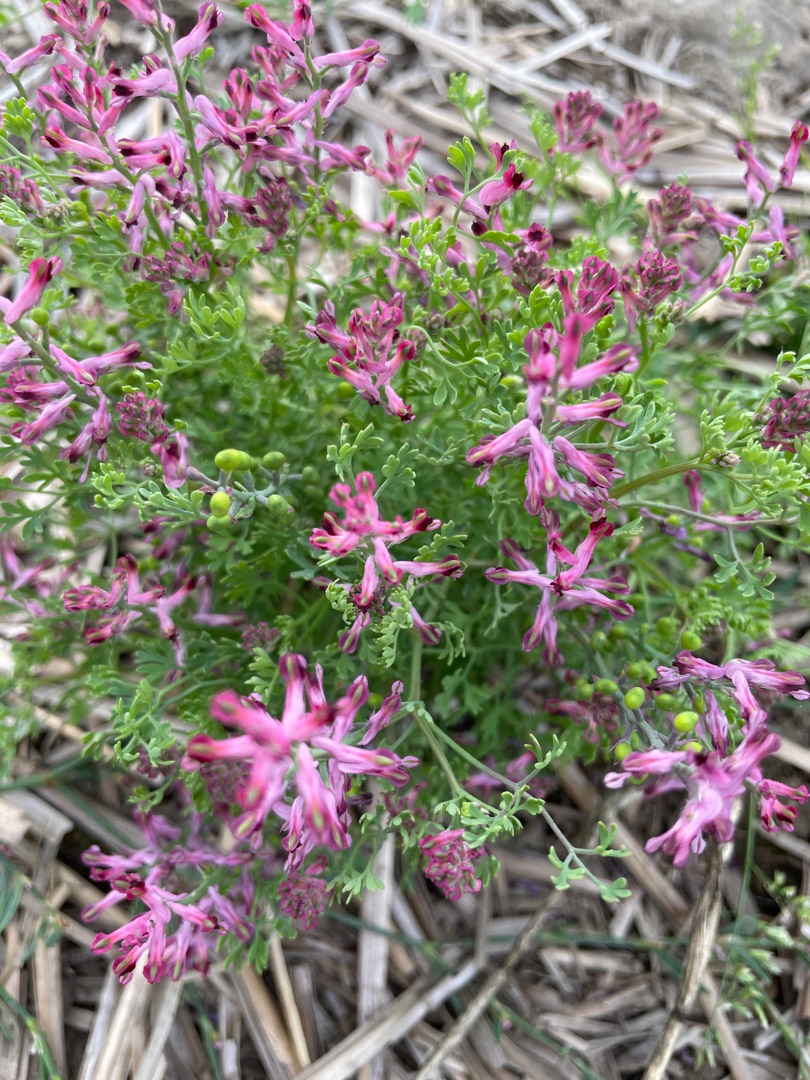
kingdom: Plantae
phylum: Tracheophyta
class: Magnoliopsida
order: Ranunculales
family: Papaveraceae
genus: Fumaria
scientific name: Fumaria officinalis
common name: Læge-jordrøg
